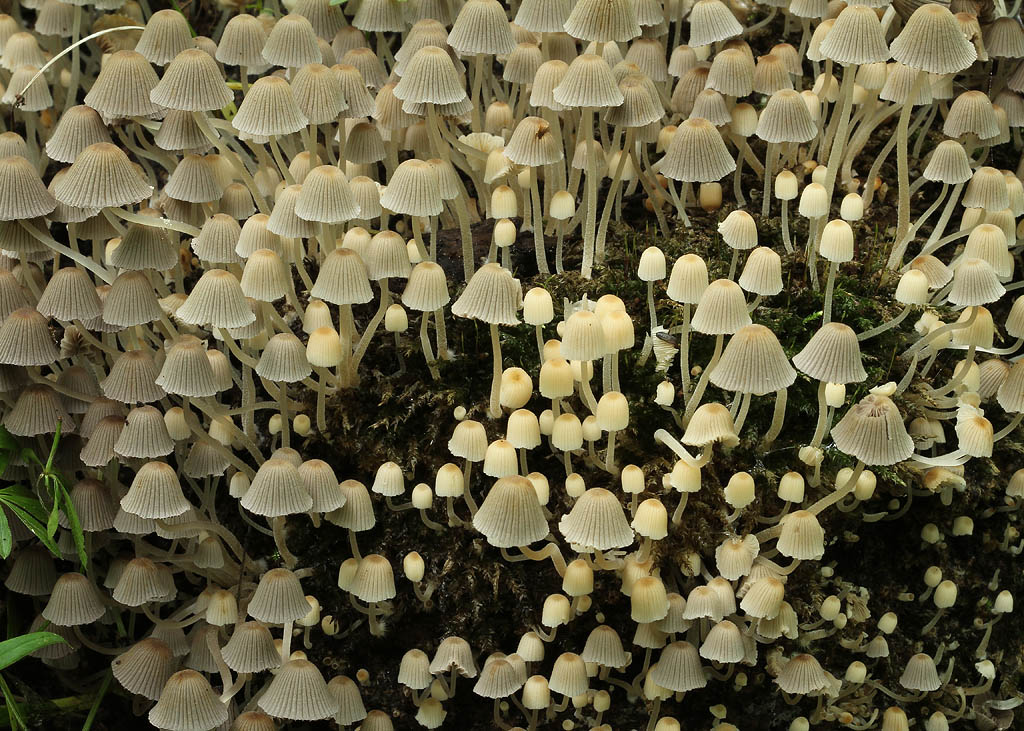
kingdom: Fungi
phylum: Basidiomycota
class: Agaricomycetes
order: Agaricales
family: Psathyrellaceae
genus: Coprinellus
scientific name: Coprinellus disseminatus
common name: bredsået blækhat
